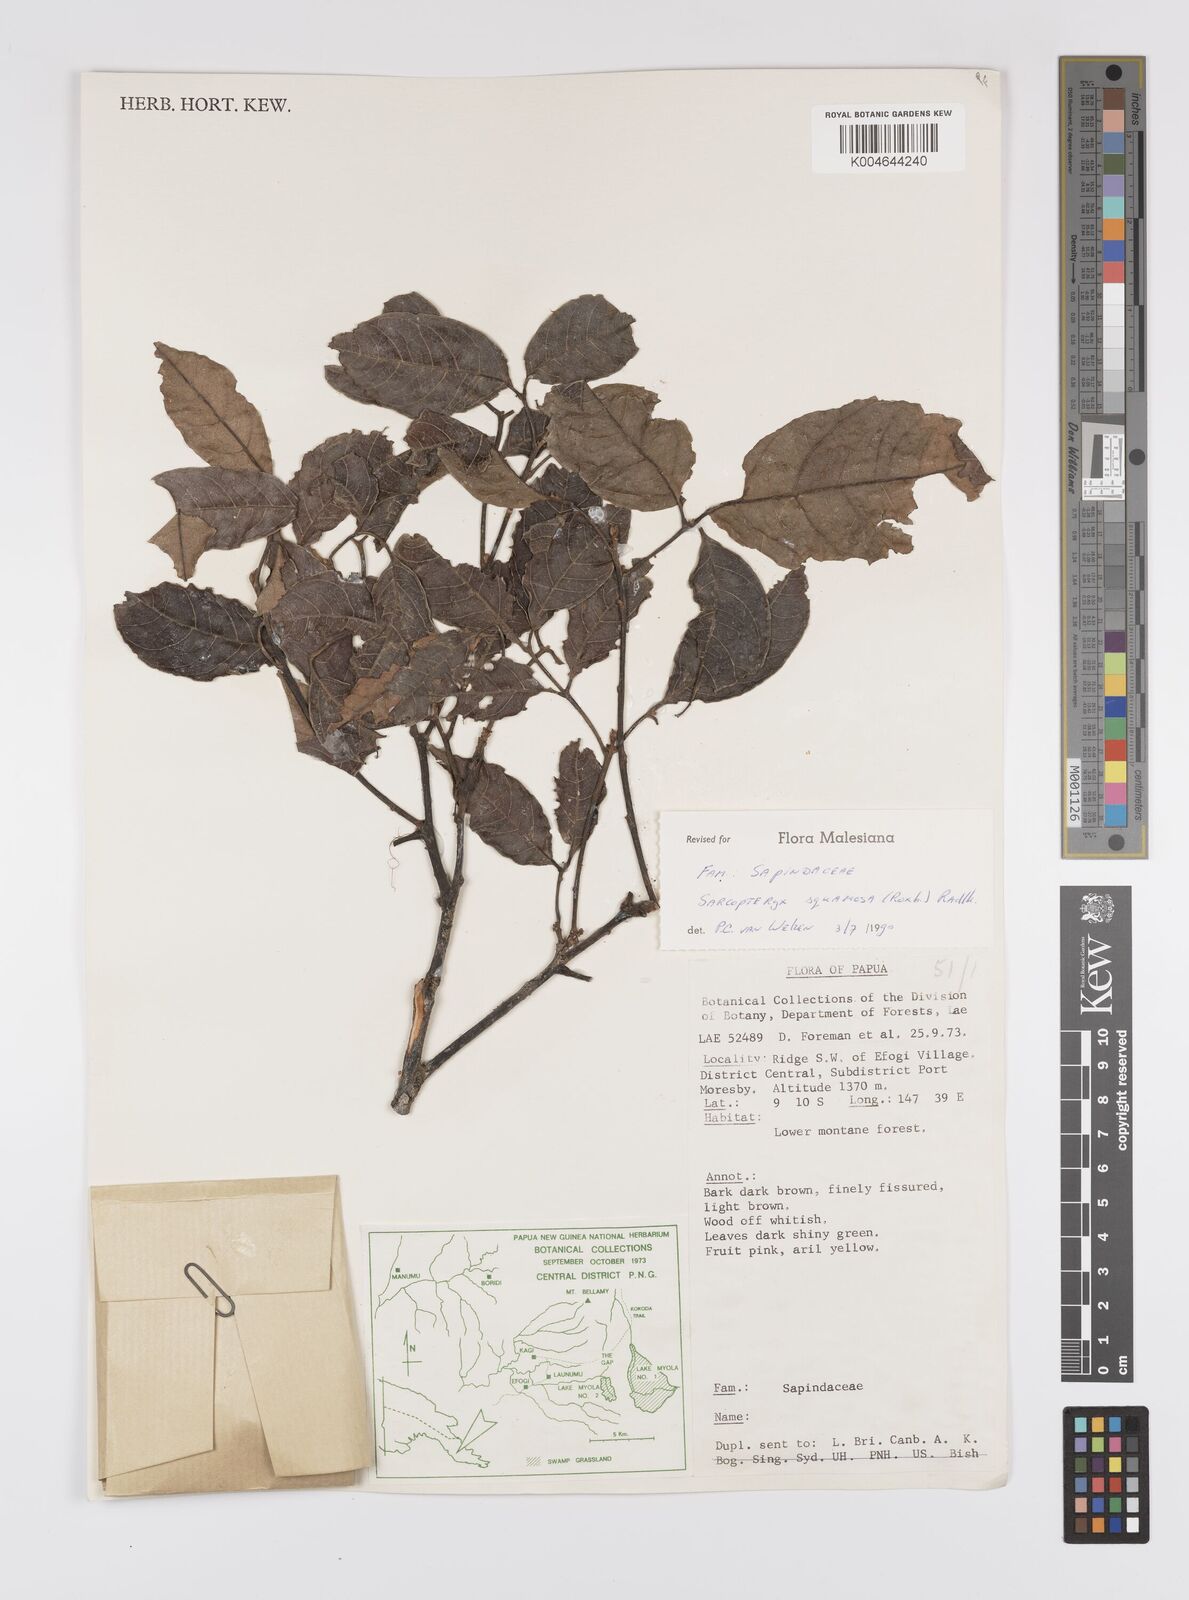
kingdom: Plantae
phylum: Tracheophyta
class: Magnoliopsida
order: Sapindales
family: Sapindaceae
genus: Sarcopteryx
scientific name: Sarcopteryx squamosa
